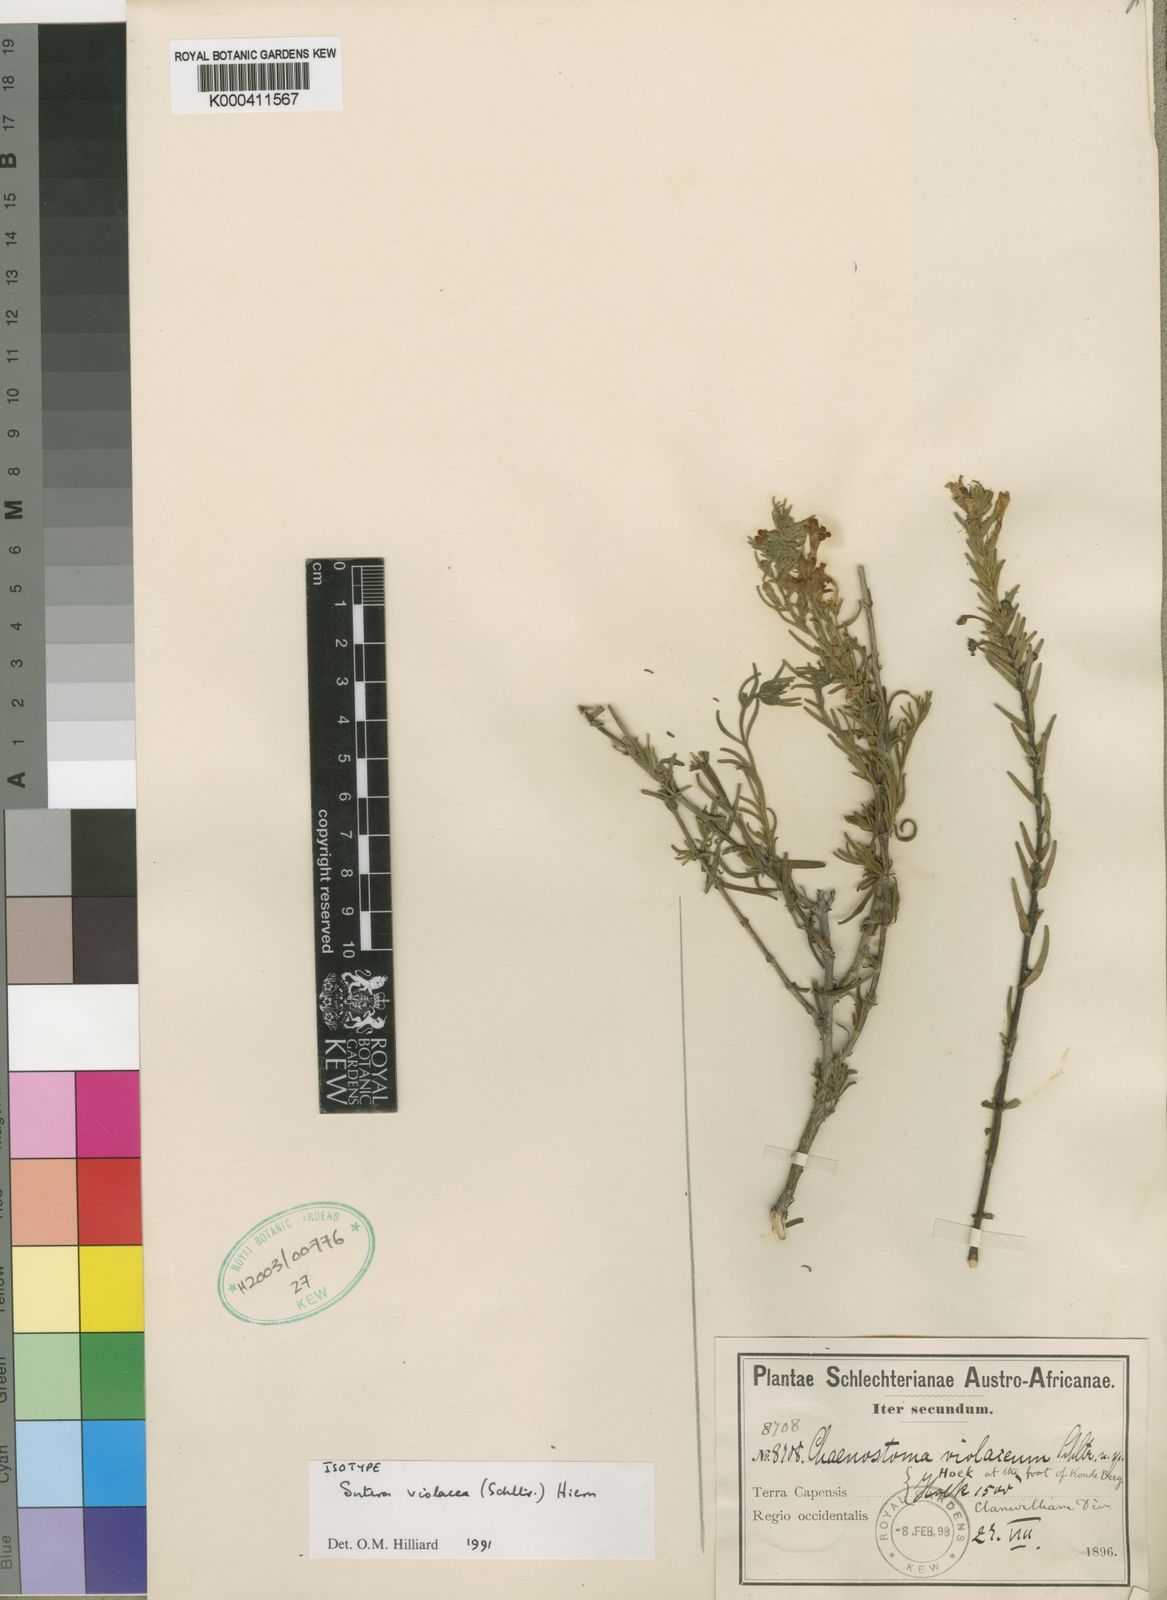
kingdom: Plantae
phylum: Tracheophyta
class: Magnoliopsida
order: Lamiales
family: Scrophulariaceae
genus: Chaenostoma
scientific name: Chaenostoma violaceum
